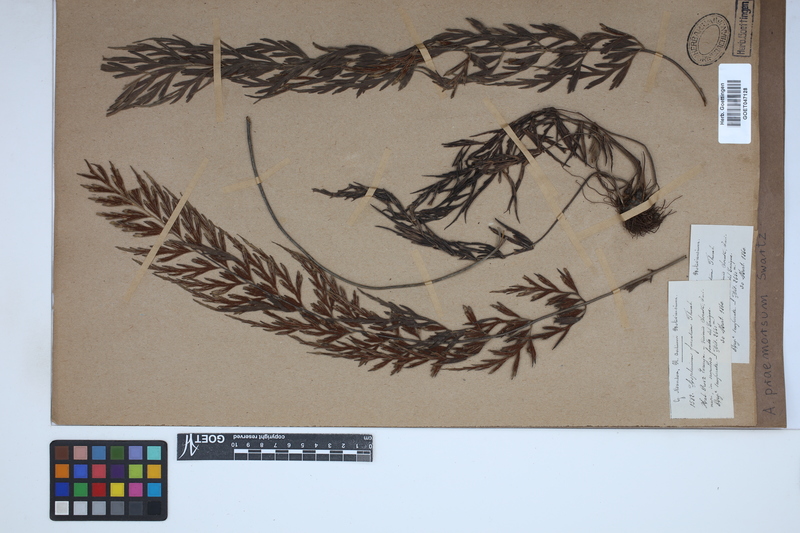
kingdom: Plantae
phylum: Tracheophyta
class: Polypodiopsida
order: Polypodiales
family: Aspleniaceae
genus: Asplenium
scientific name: Asplenium praemorsum
